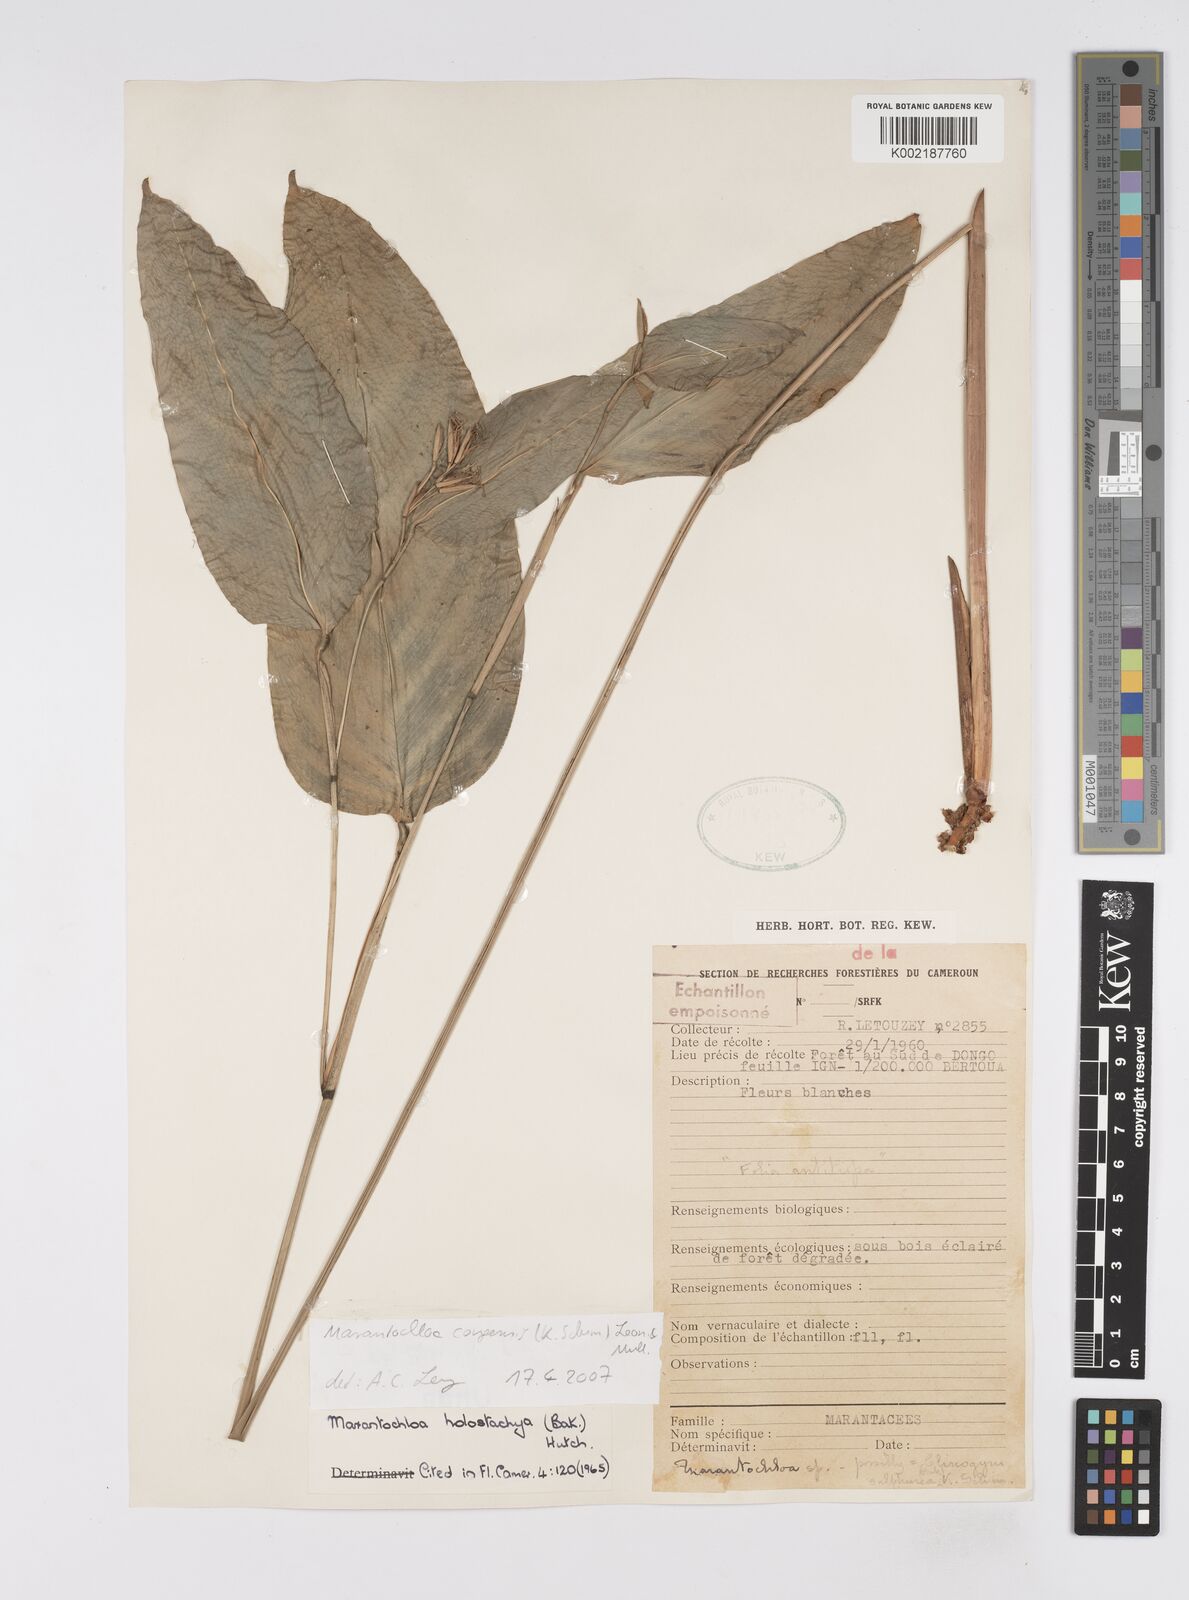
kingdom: Plantae
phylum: Tracheophyta
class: Liliopsida
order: Zingiberales
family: Marantaceae
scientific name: Marantaceae
